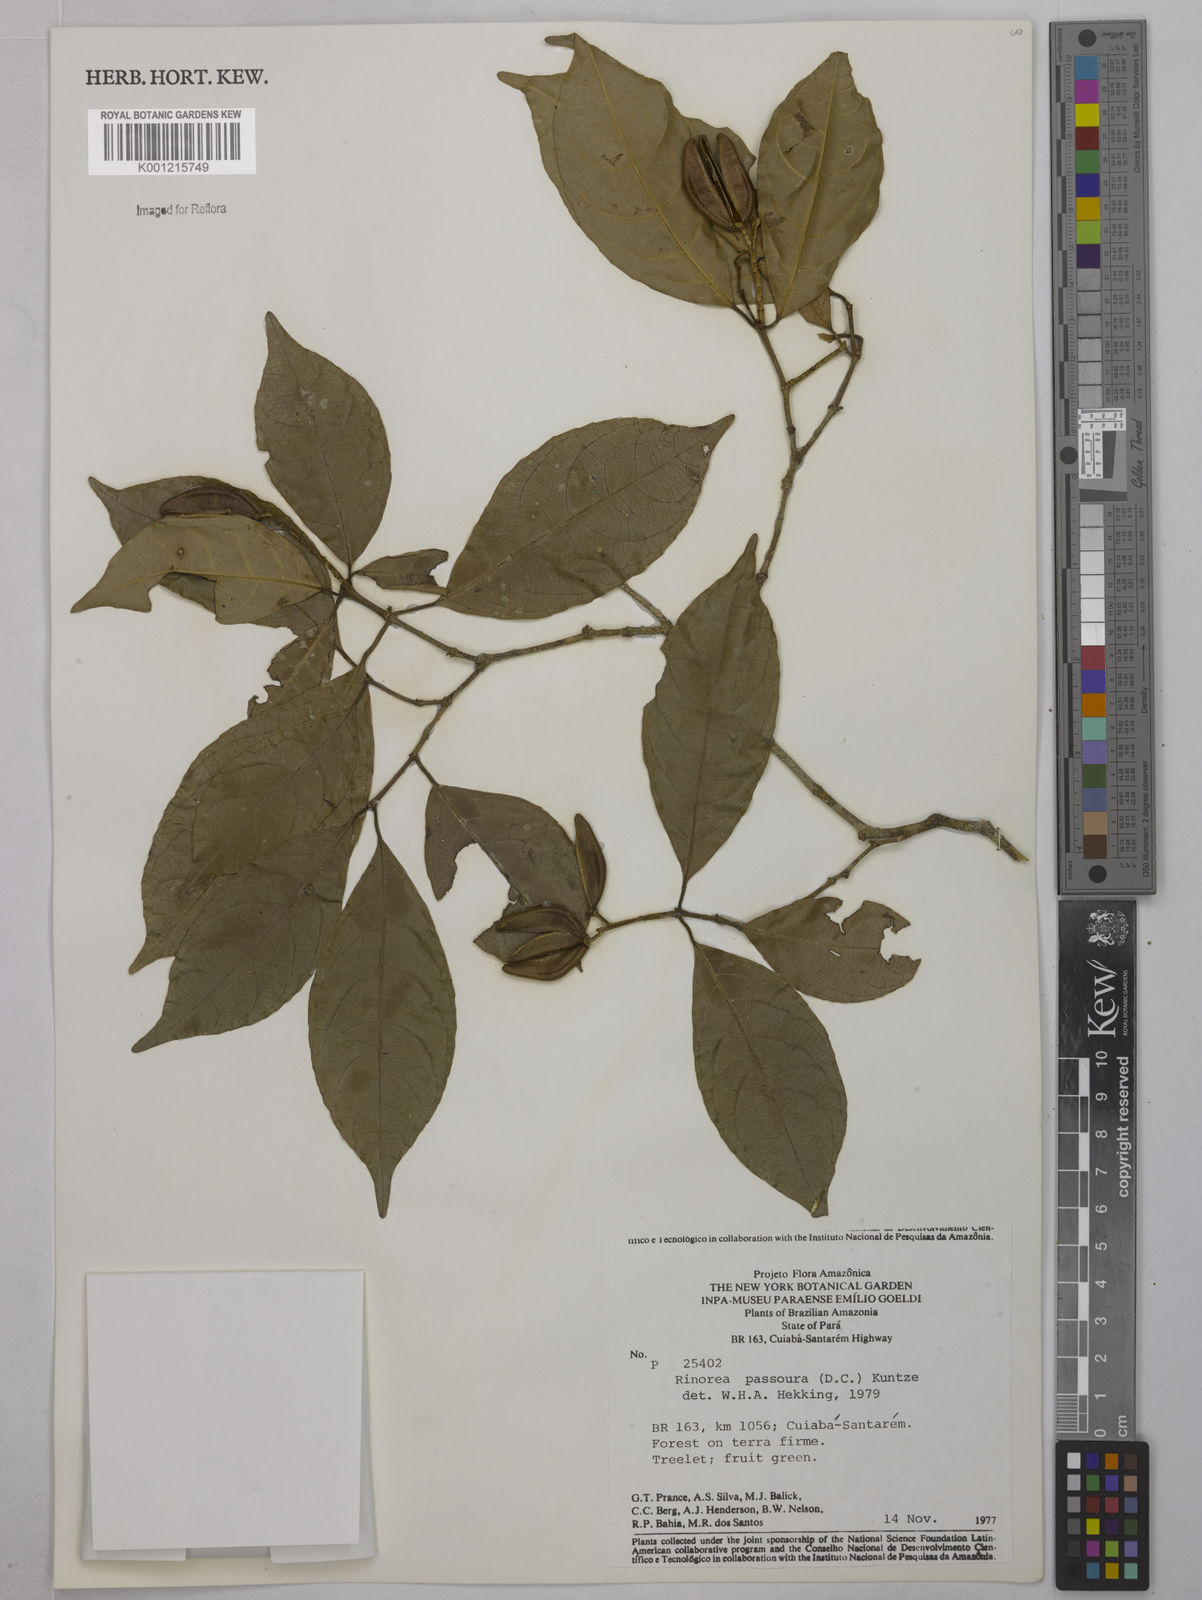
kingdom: Plantae
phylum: Tracheophyta
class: Magnoliopsida
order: Malpighiales
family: Violaceae
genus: Rinorea
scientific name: Rinorea pubiflora
